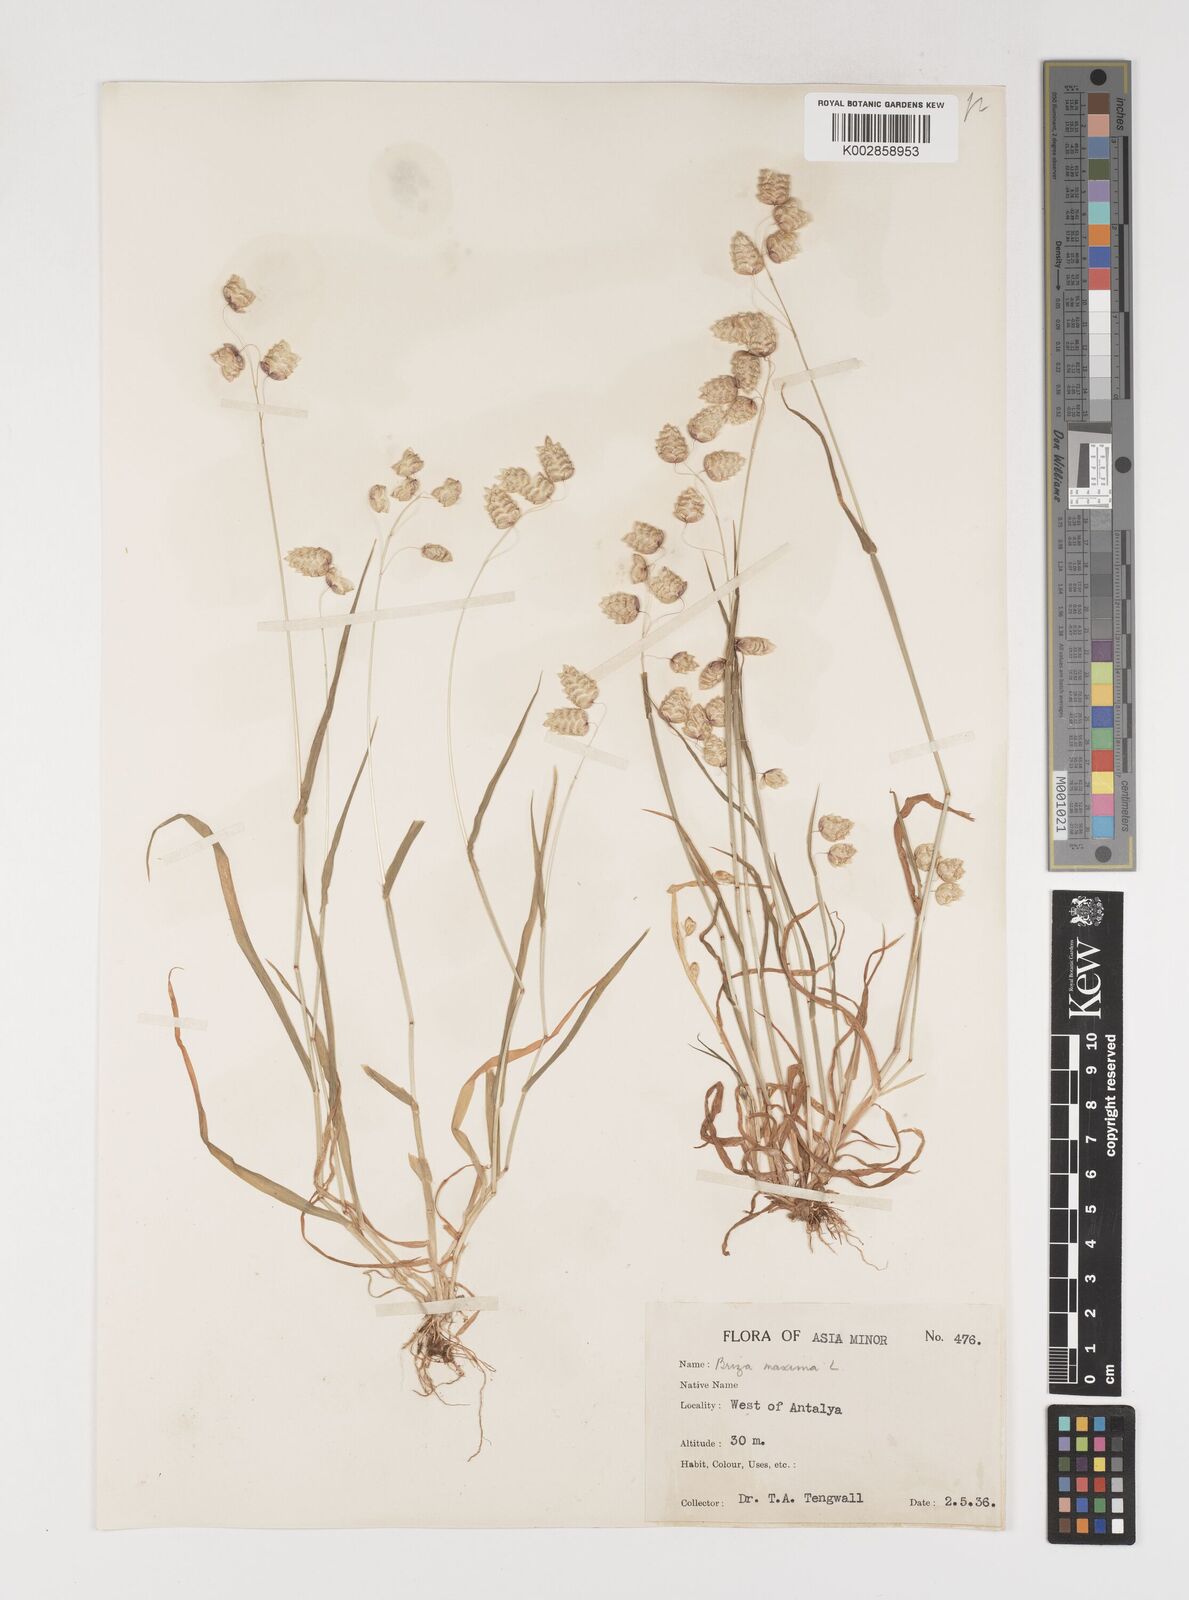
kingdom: Plantae
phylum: Tracheophyta
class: Liliopsida
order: Poales
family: Poaceae
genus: Briza
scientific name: Briza maxima
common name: Big quakinggrass
